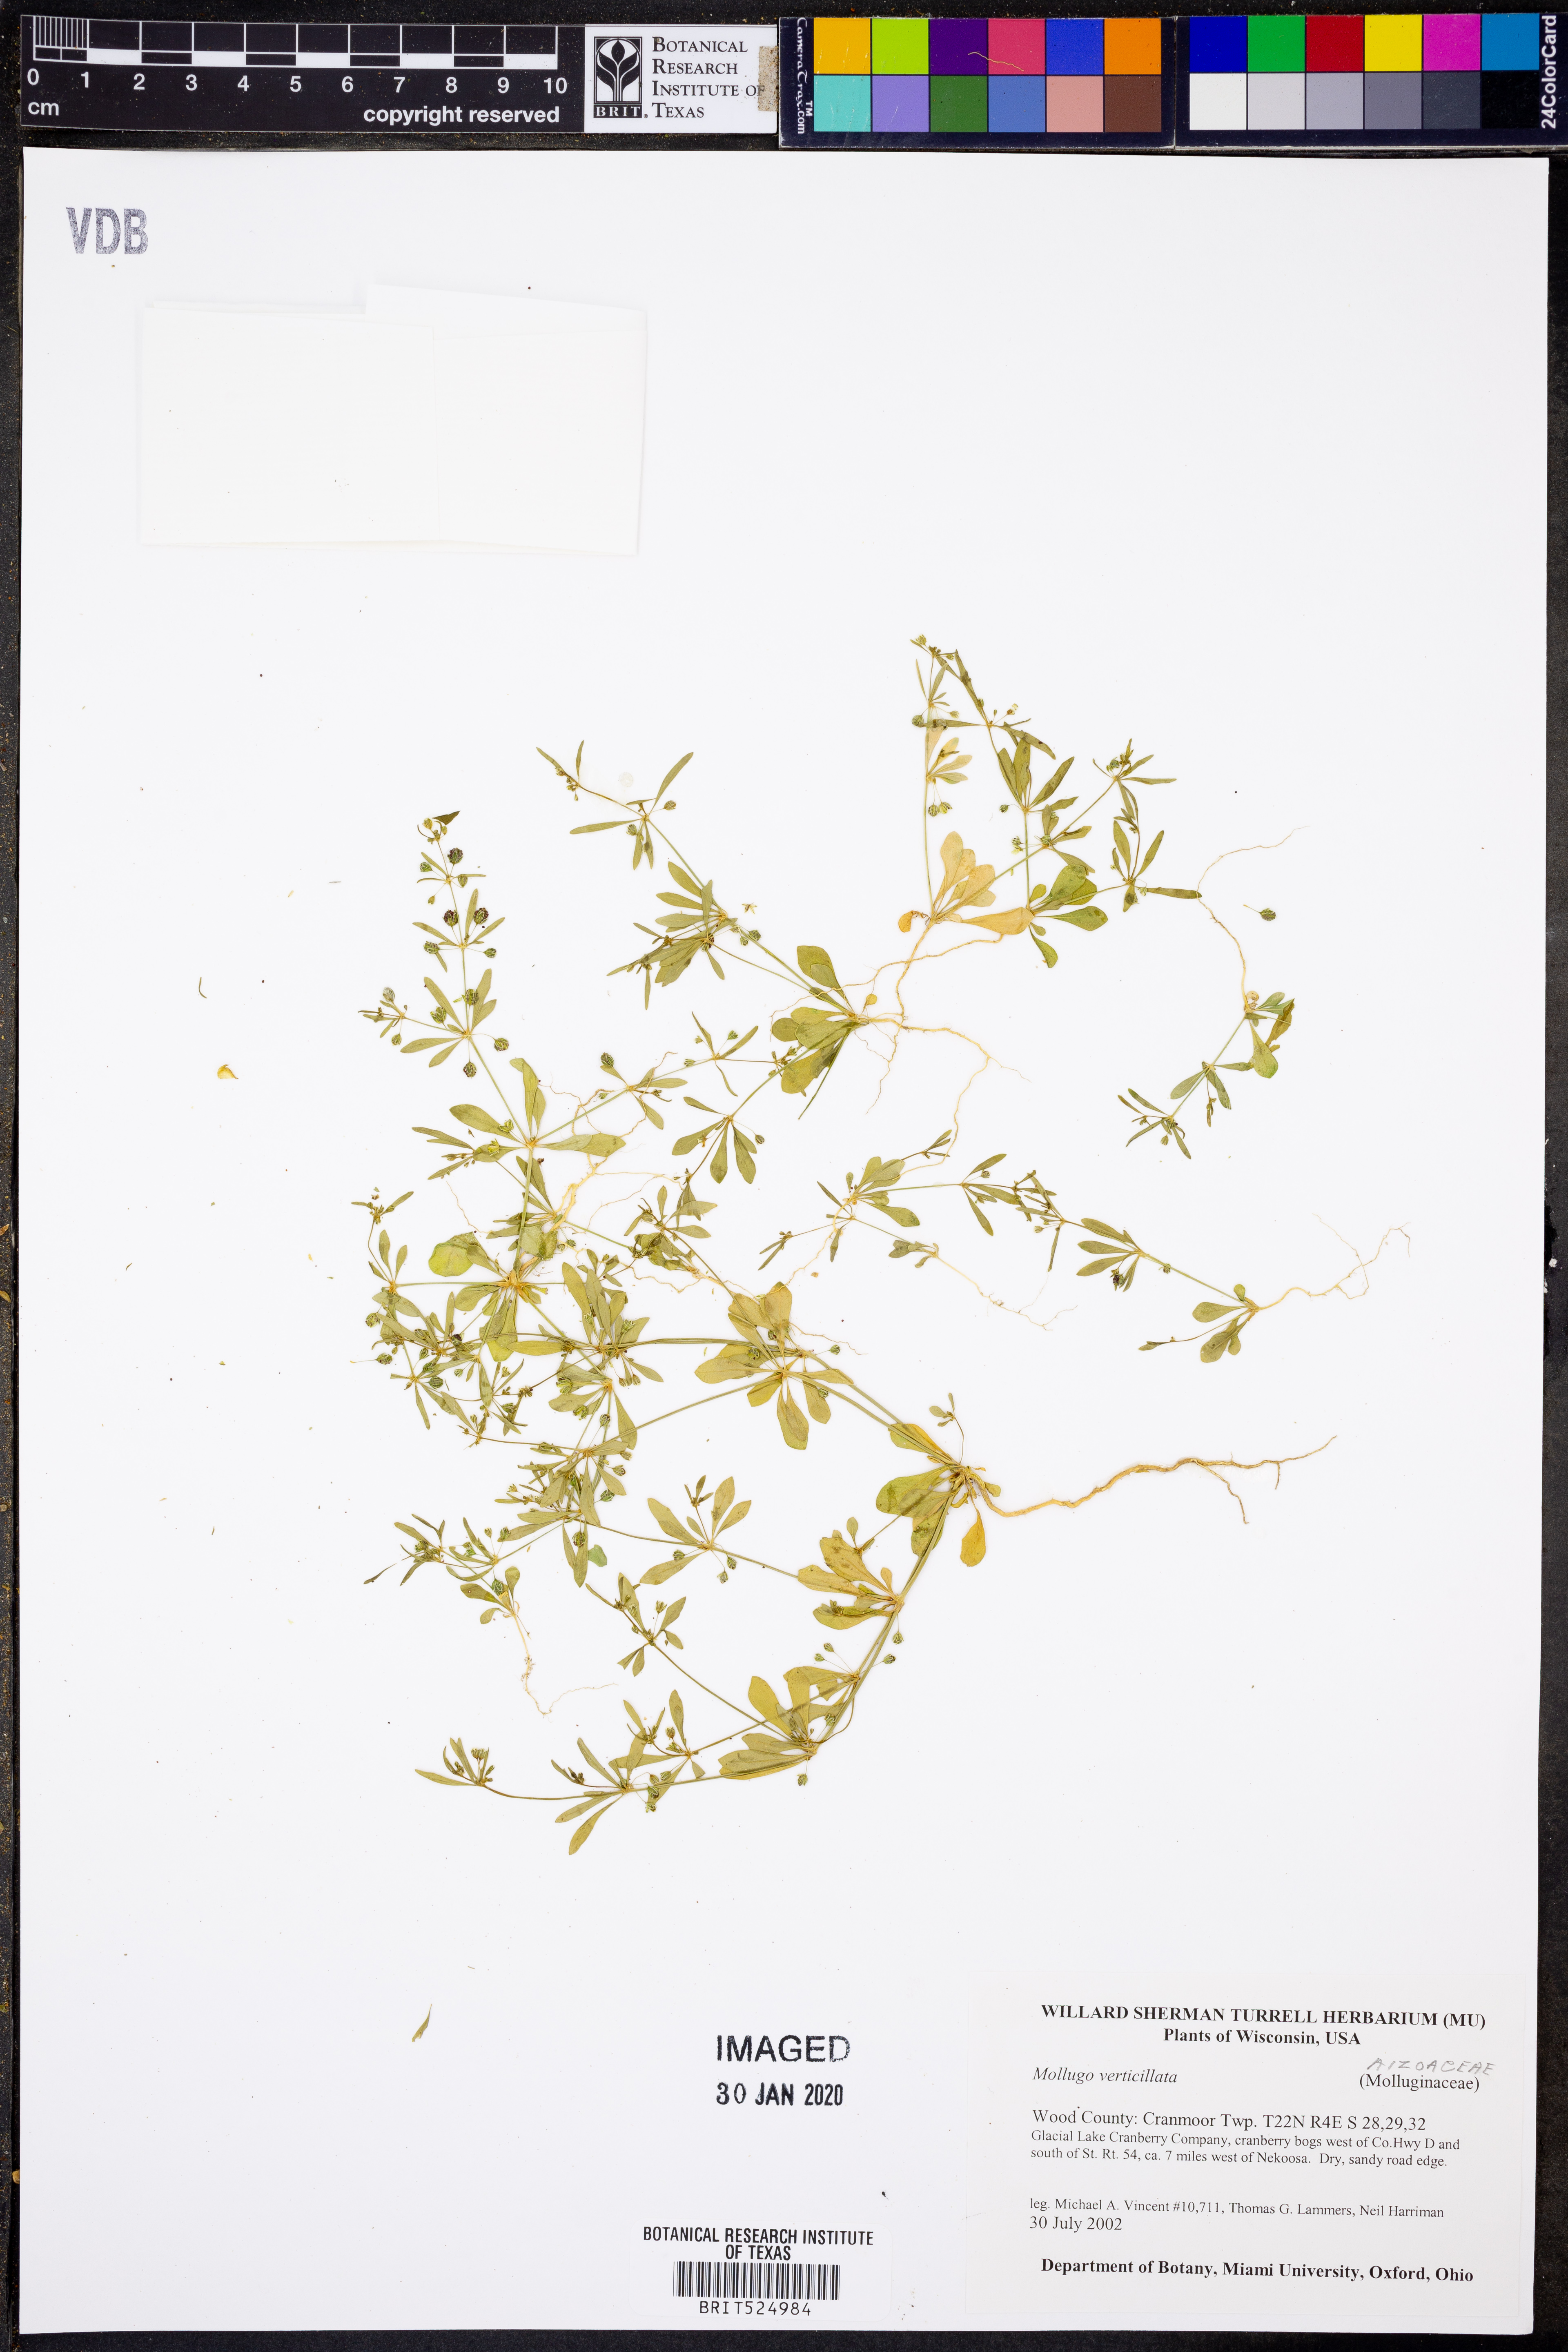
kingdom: Plantae
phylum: Tracheophyta
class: Magnoliopsida
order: Caryophyllales
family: Molluginaceae
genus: Mollugo
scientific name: Mollugo verticillata
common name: Green carpetweed
